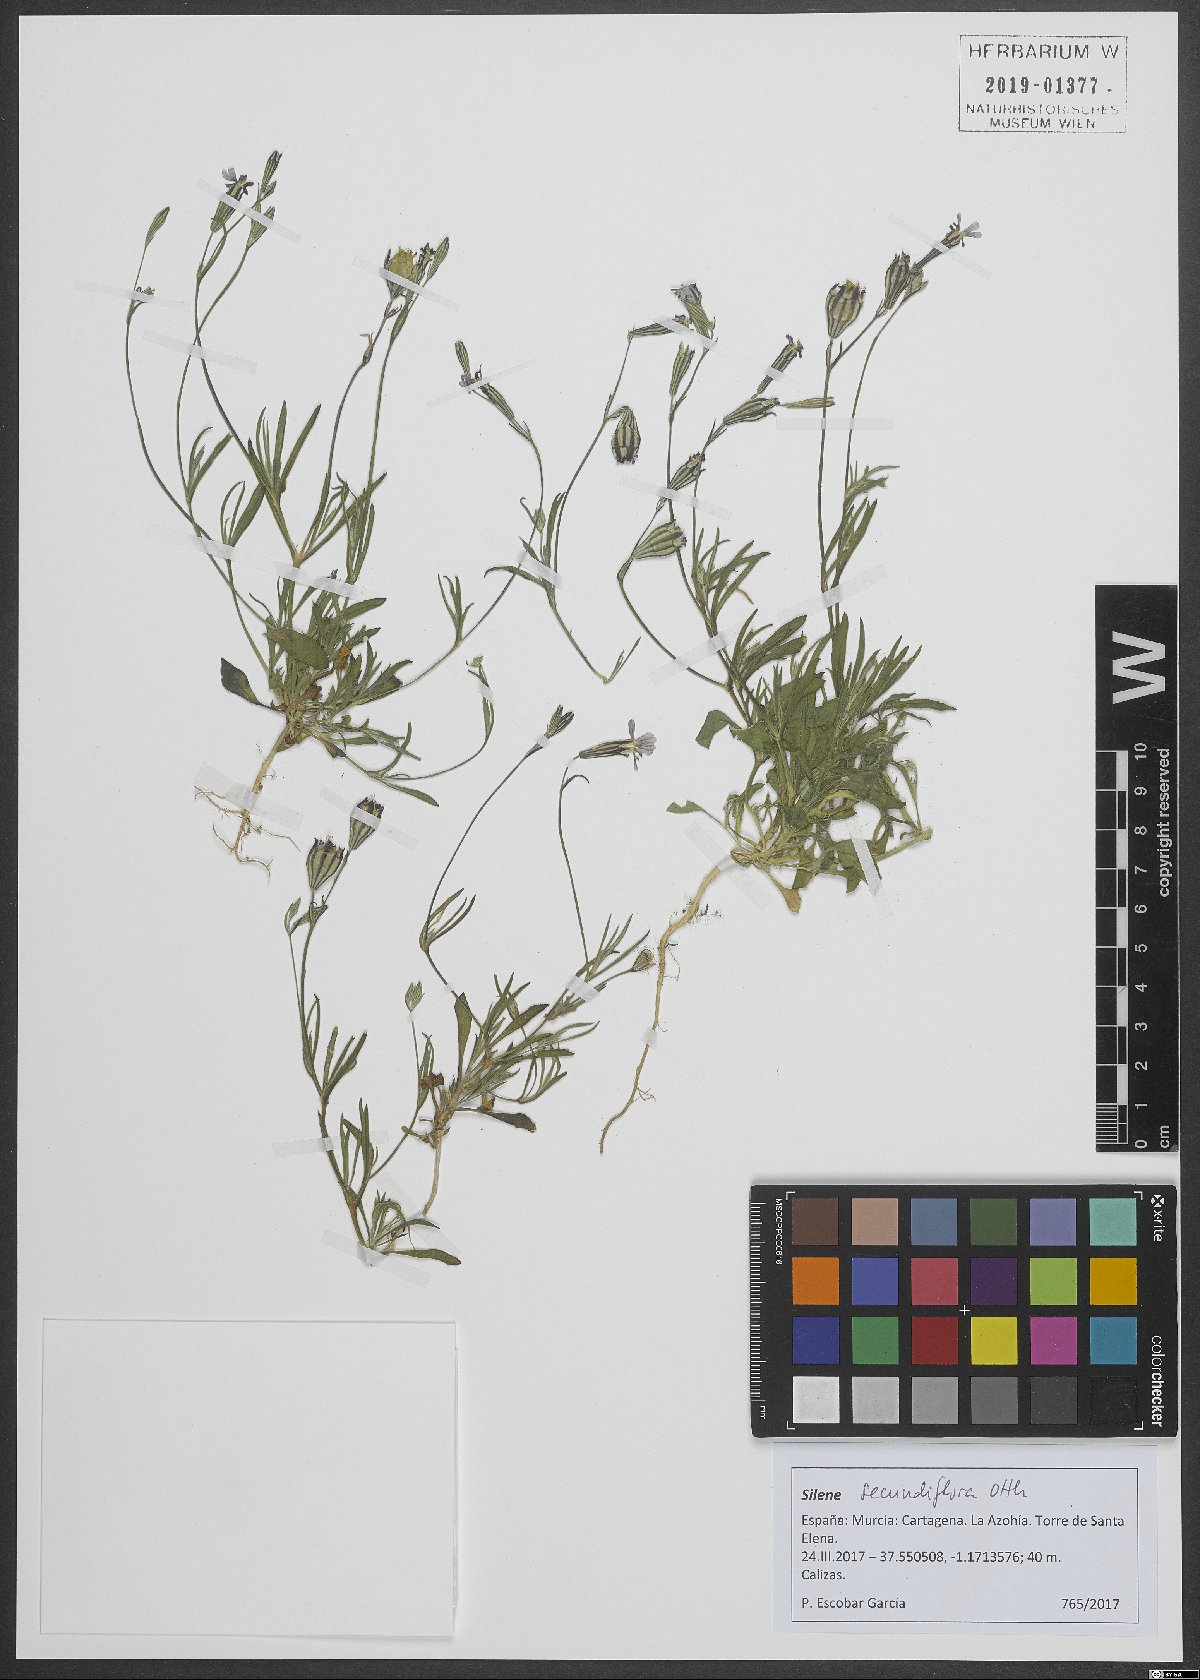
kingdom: Plantae
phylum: Tracheophyta
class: Magnoliopsida
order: Caryophyllales
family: Caryophyllaceae
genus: Silene
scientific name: Silene secundiflora
